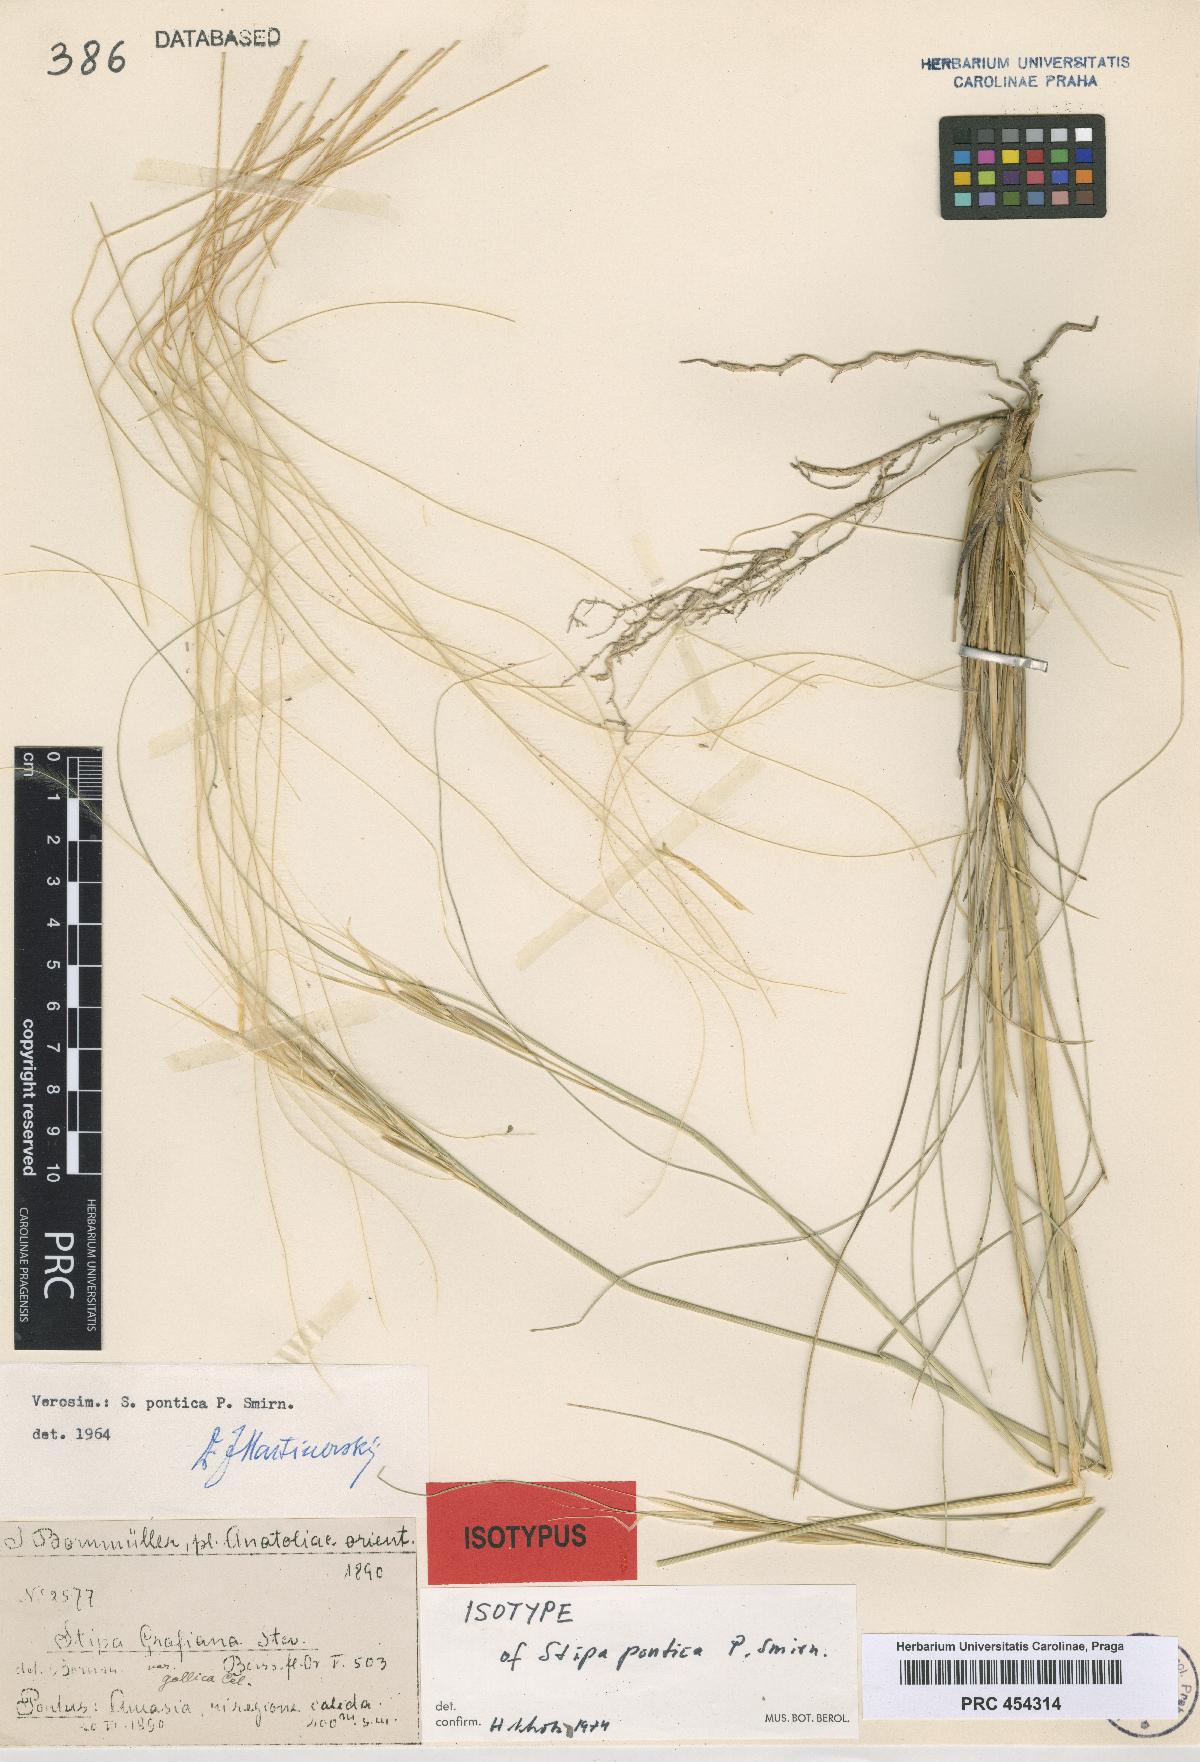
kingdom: Plantae
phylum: Tracheophyta
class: Liliopsida
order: Poales
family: Poaceae
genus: Stipa
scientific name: Stipa pontica
